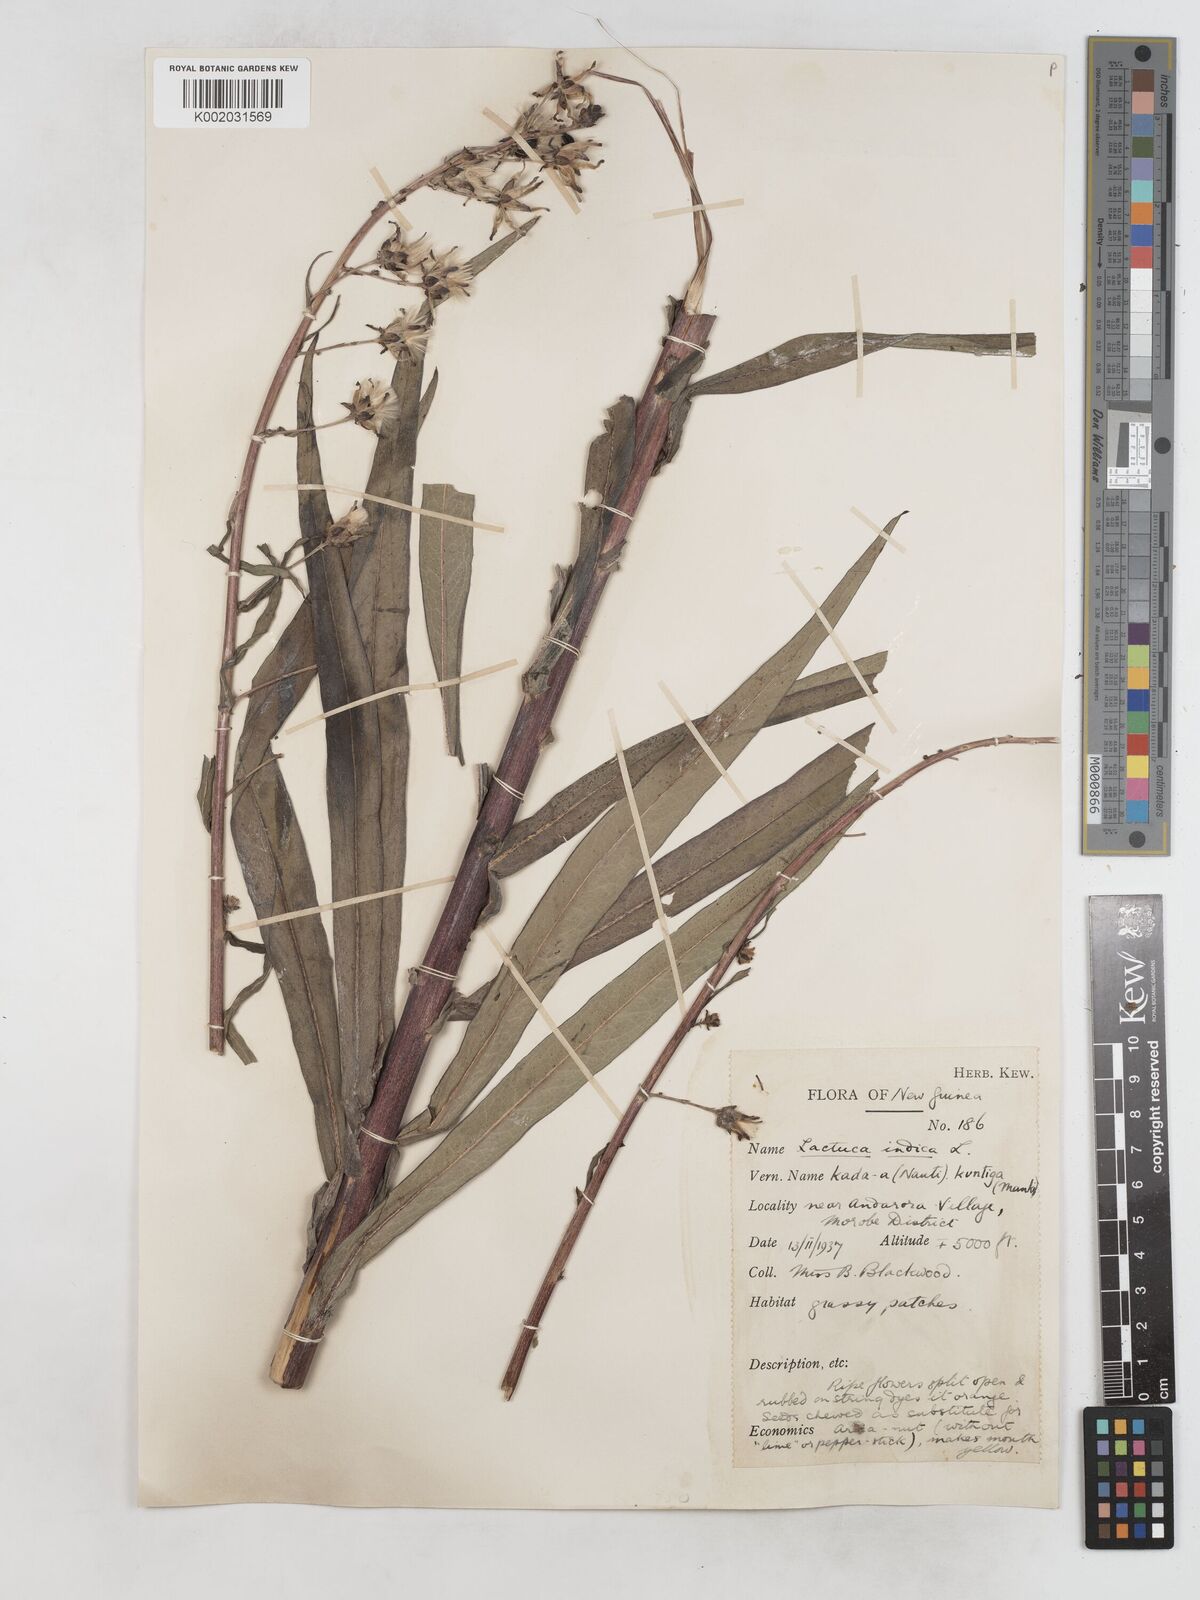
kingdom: Plantae
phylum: Tracheophyta
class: Magnoliopsida
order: Asterales
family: Asteraceae
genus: Lactuca
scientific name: Lactuca indica
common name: Wild lettuce
